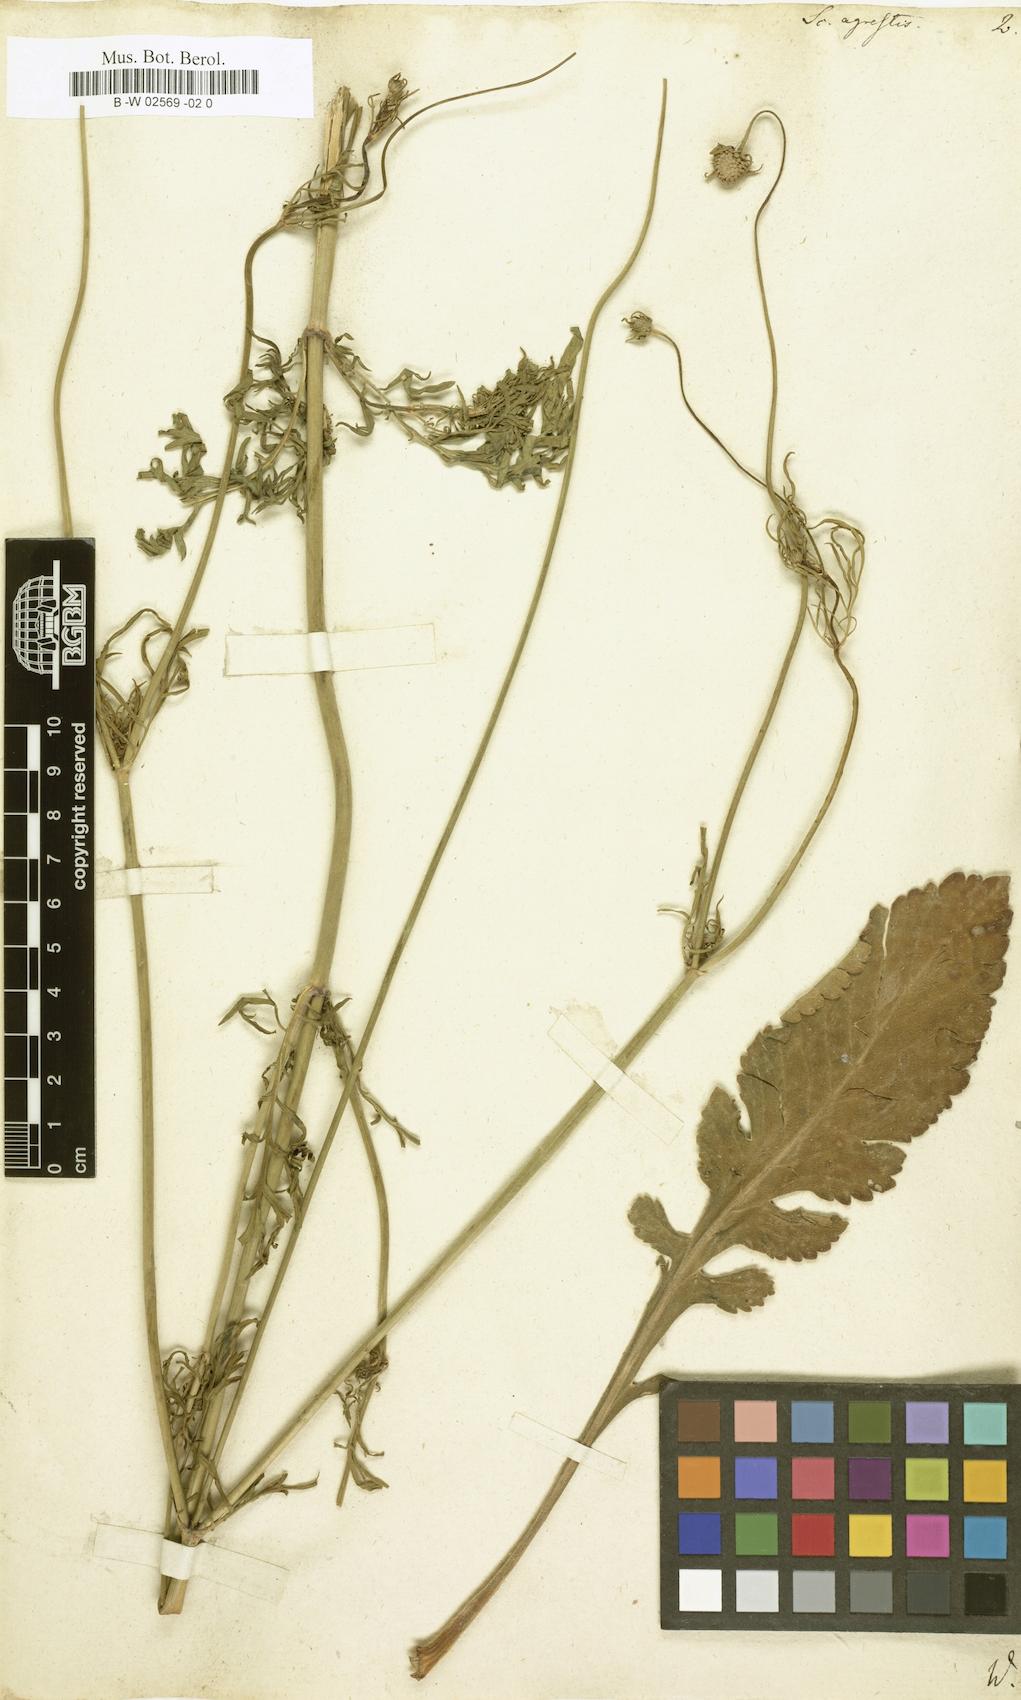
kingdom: Plantae
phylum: Tracheophyta
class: Magnoliopsida
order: Dipsacales
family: Caprifoliaceae
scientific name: Caprifoliaceae
